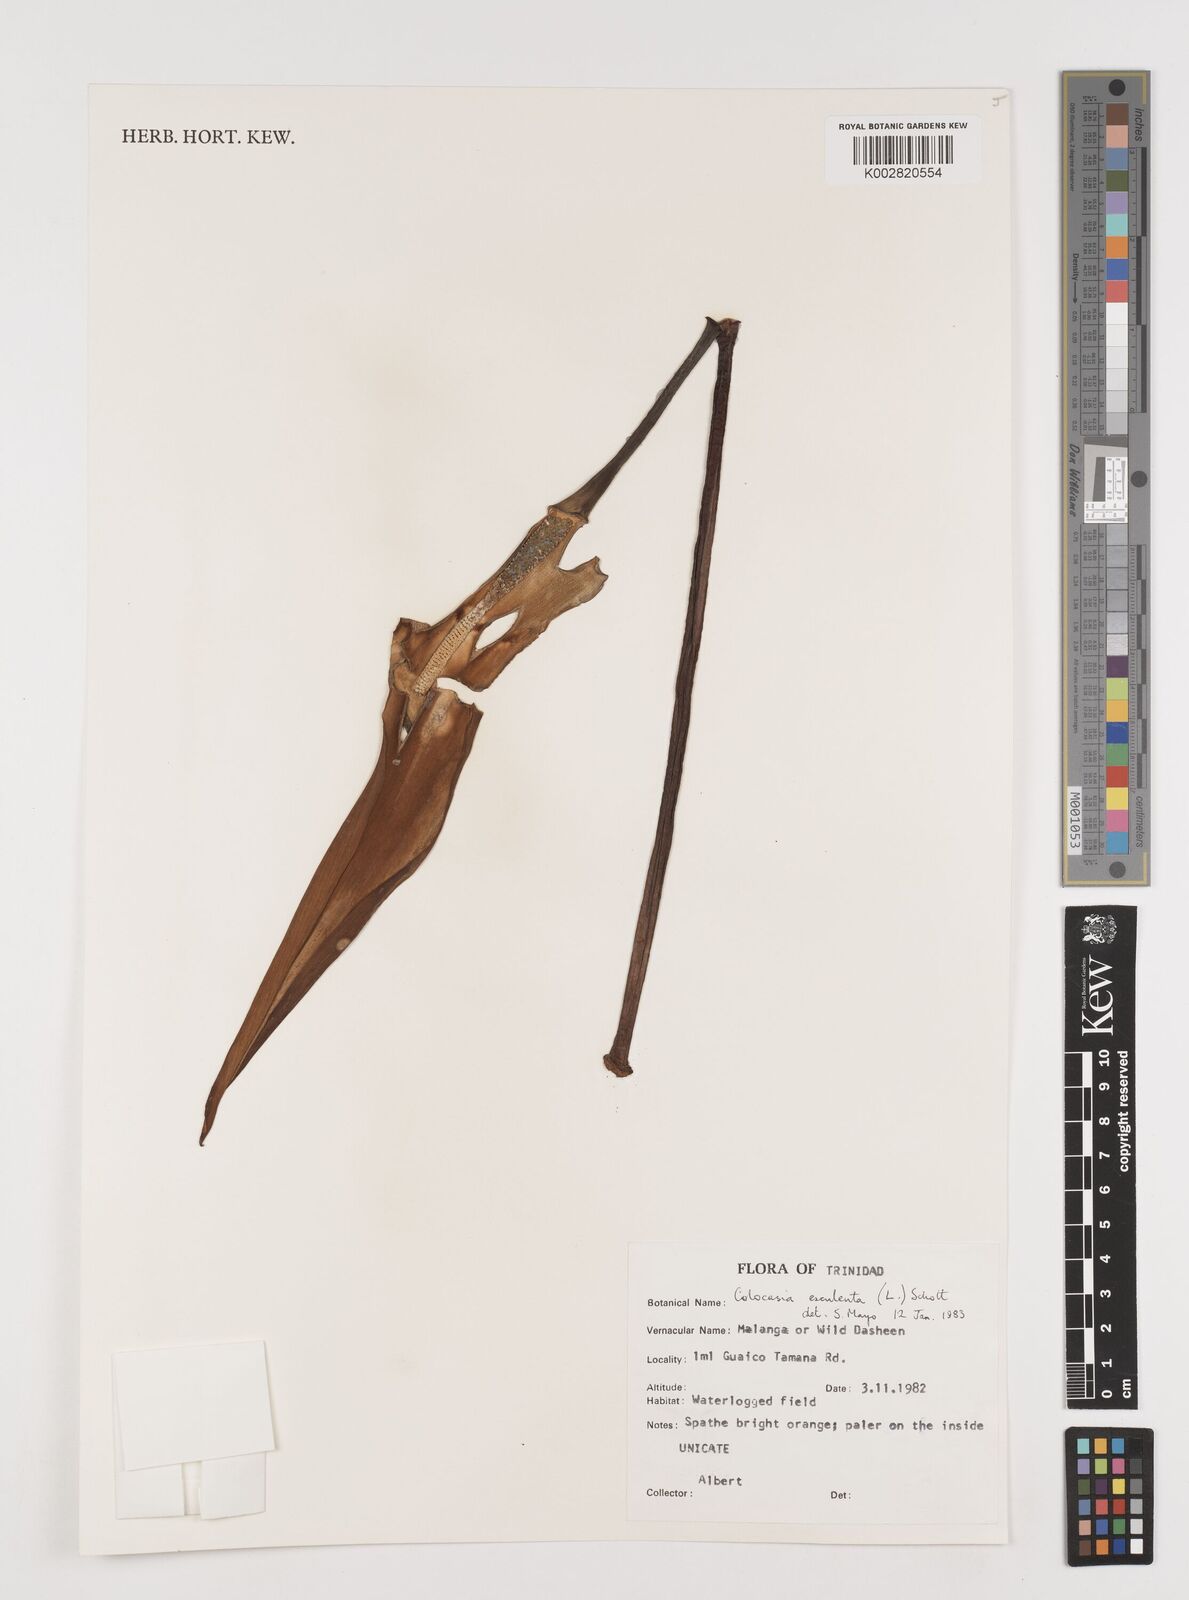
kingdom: Plantae
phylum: Tracheophyta
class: Liliopsida
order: Alismatales
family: Araceae
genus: Colocasia
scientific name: Colocasia esculenta
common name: Taro
